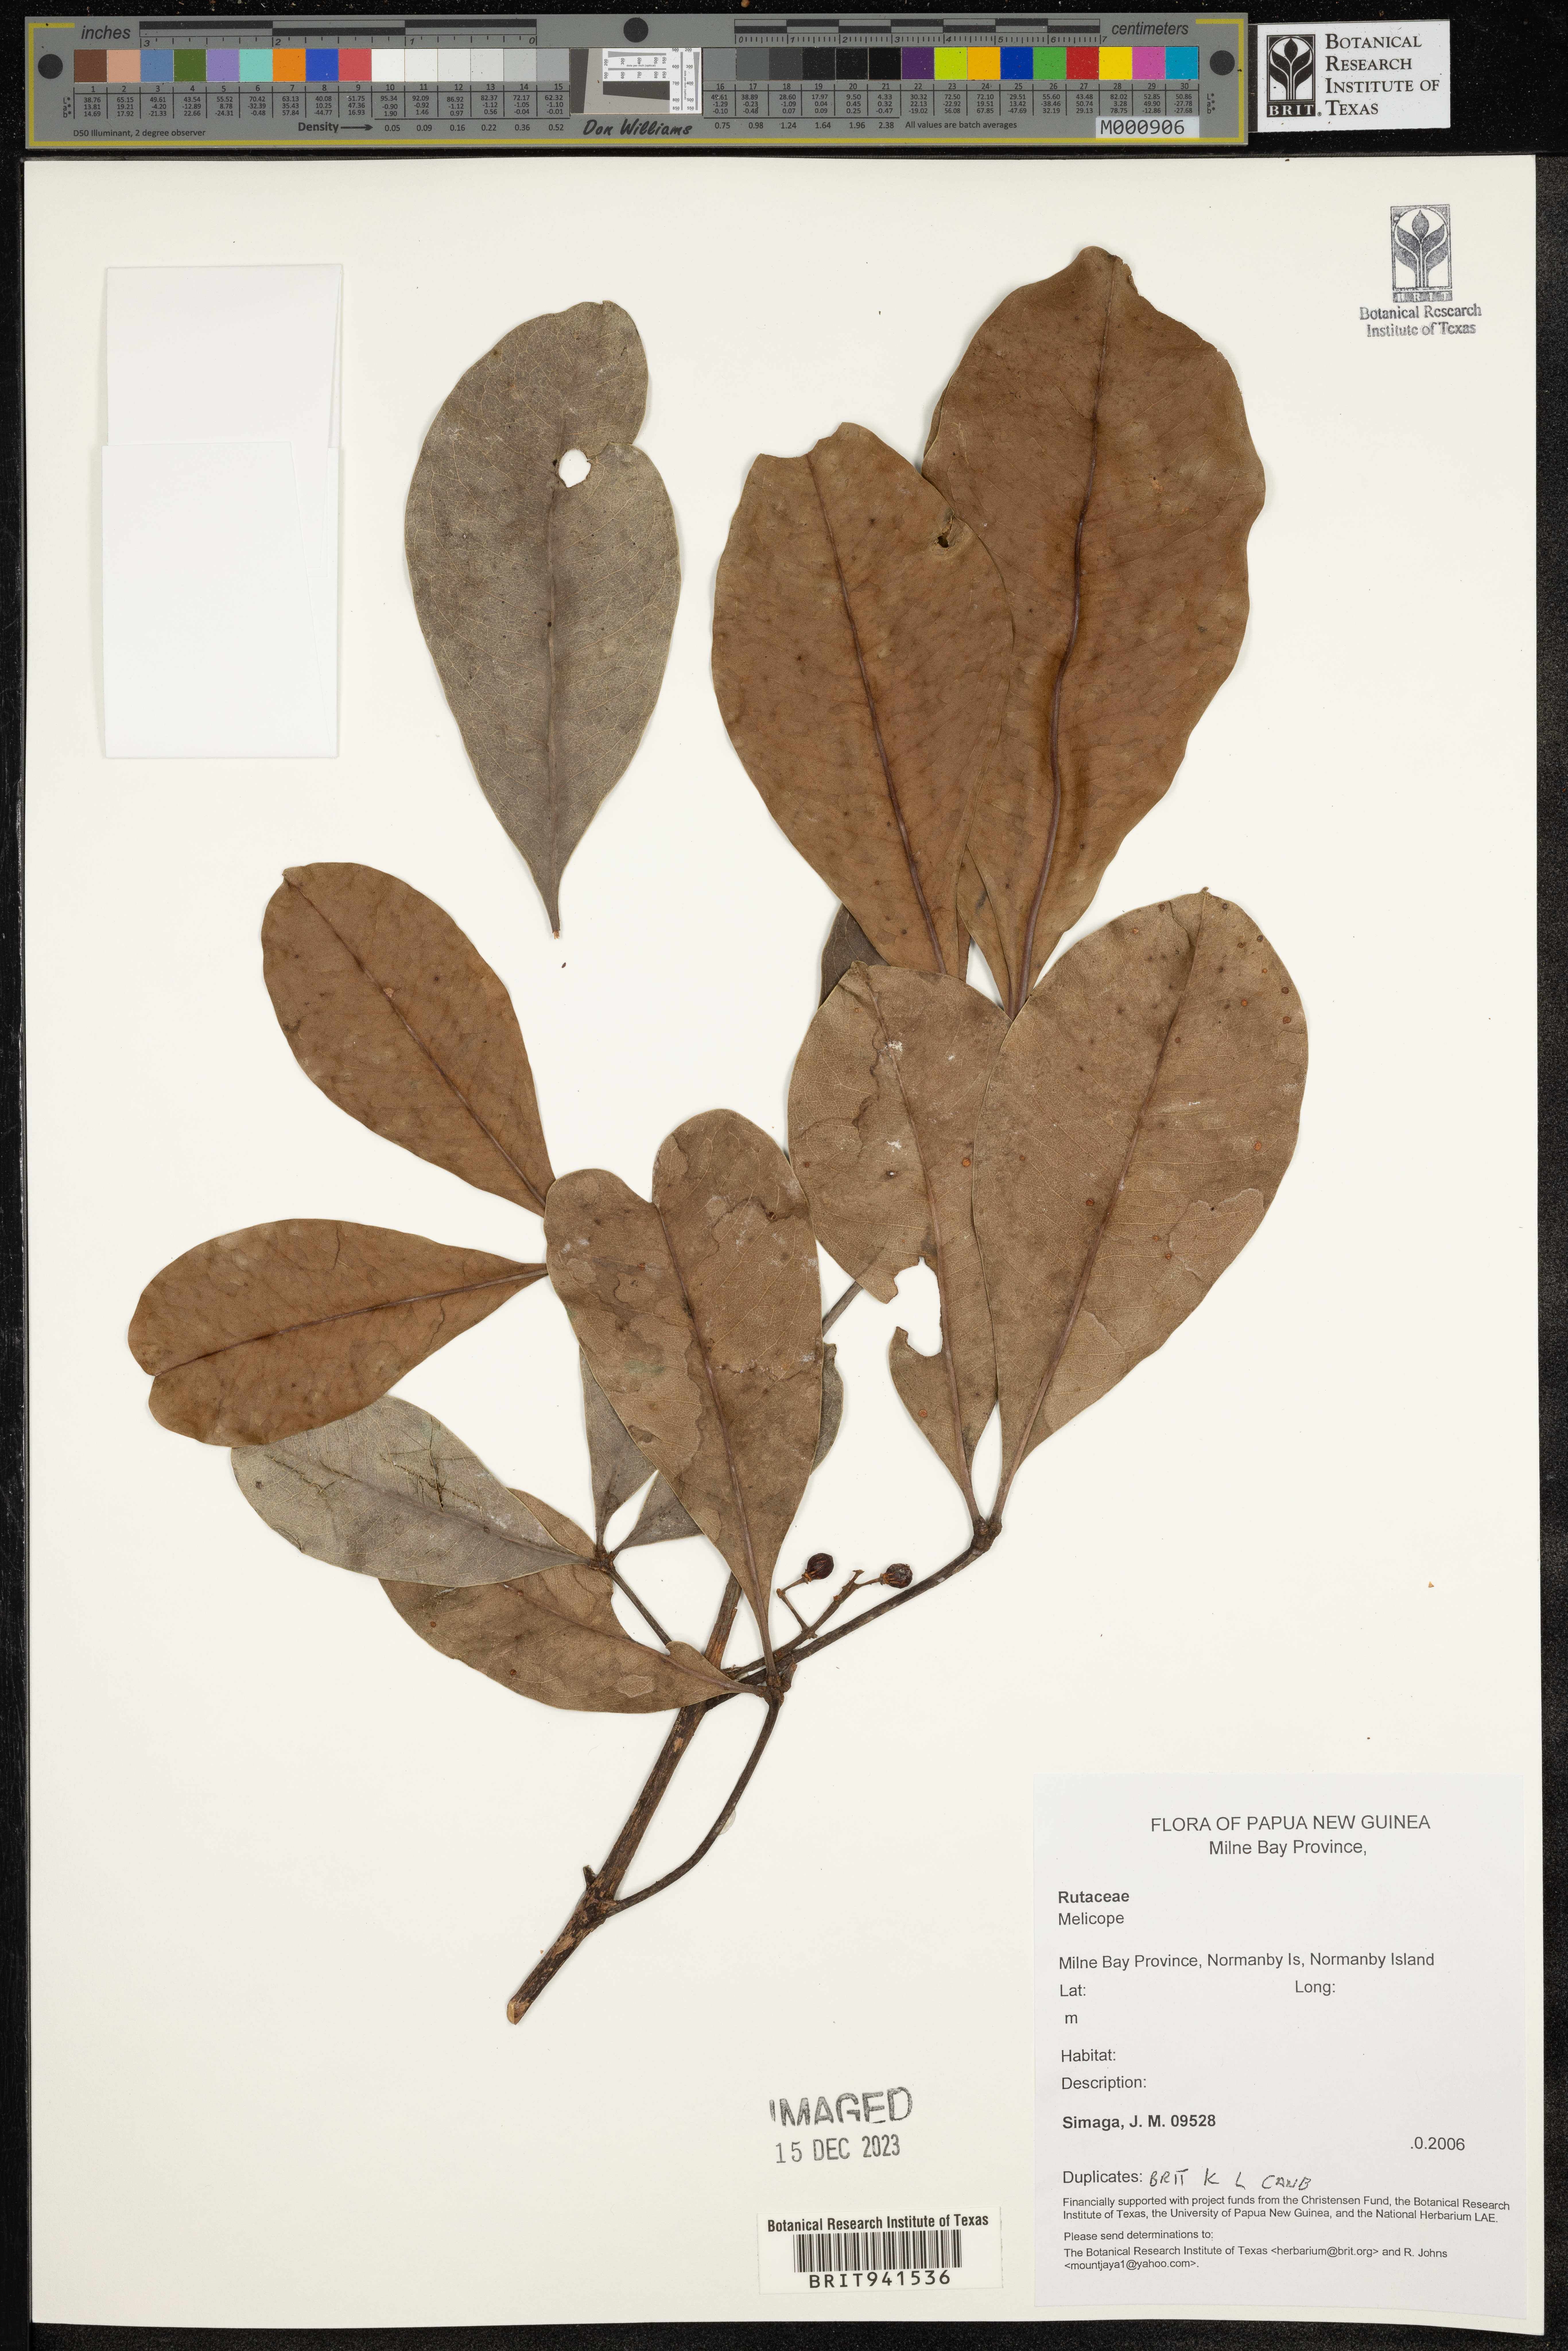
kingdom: Plantae
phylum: Tracheophyta
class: Magnoliopsida
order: Sapindales
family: Rutaceae
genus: Melicope
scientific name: Melicope
